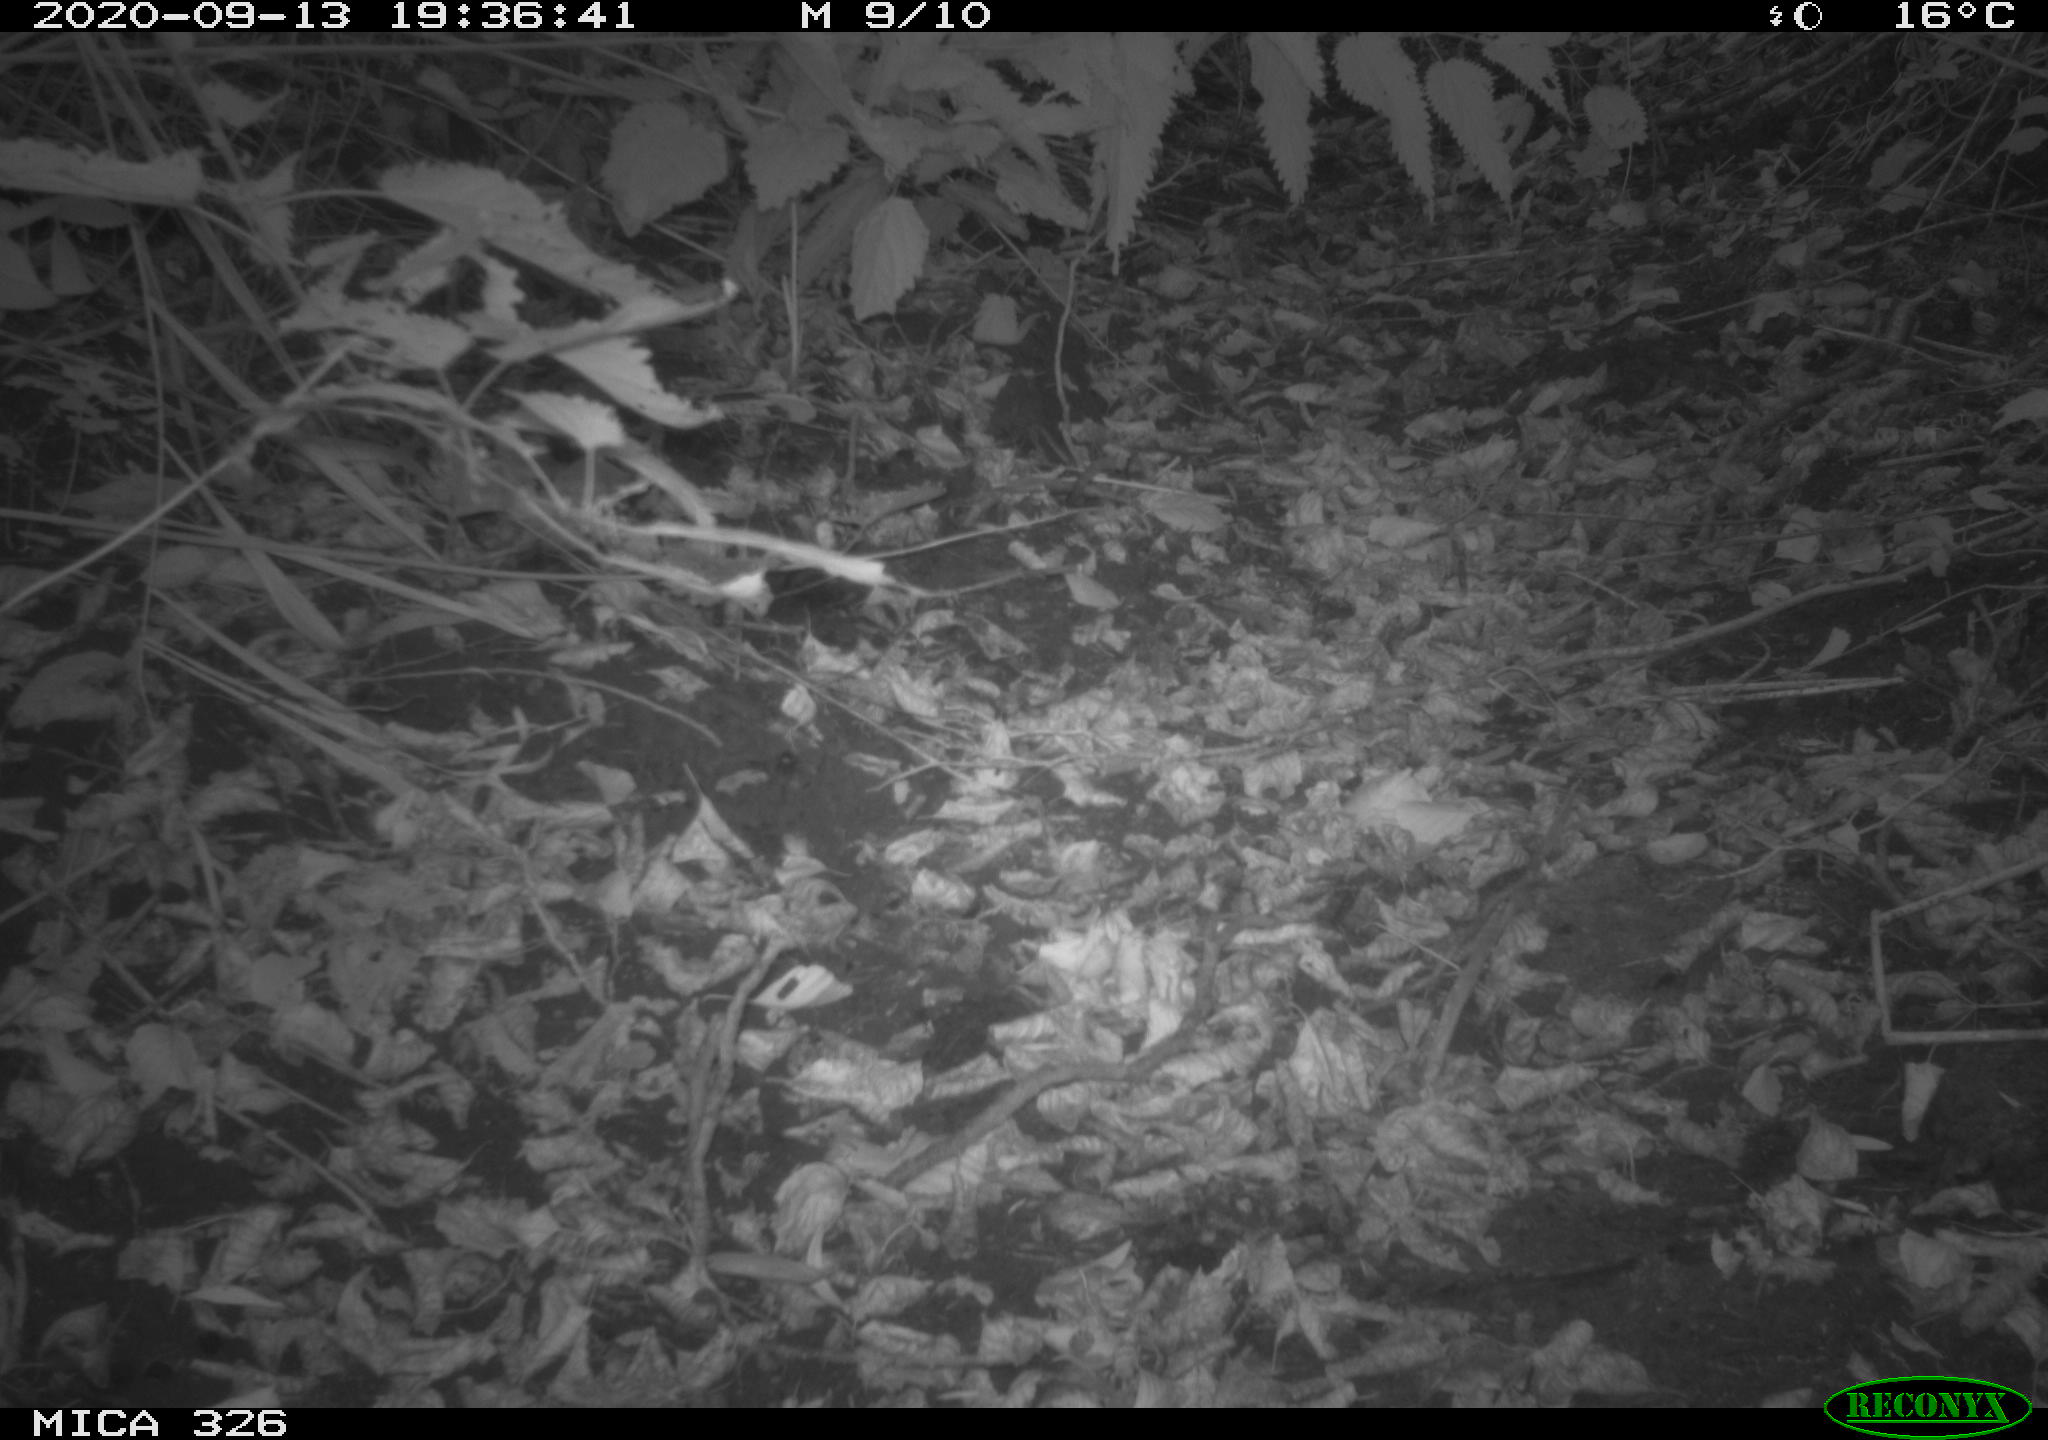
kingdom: Animalia
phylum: Chordata
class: Aves
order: Passeriformes
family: Turdidae
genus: Turdus
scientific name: Turdus philomelos
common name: Song thrush
